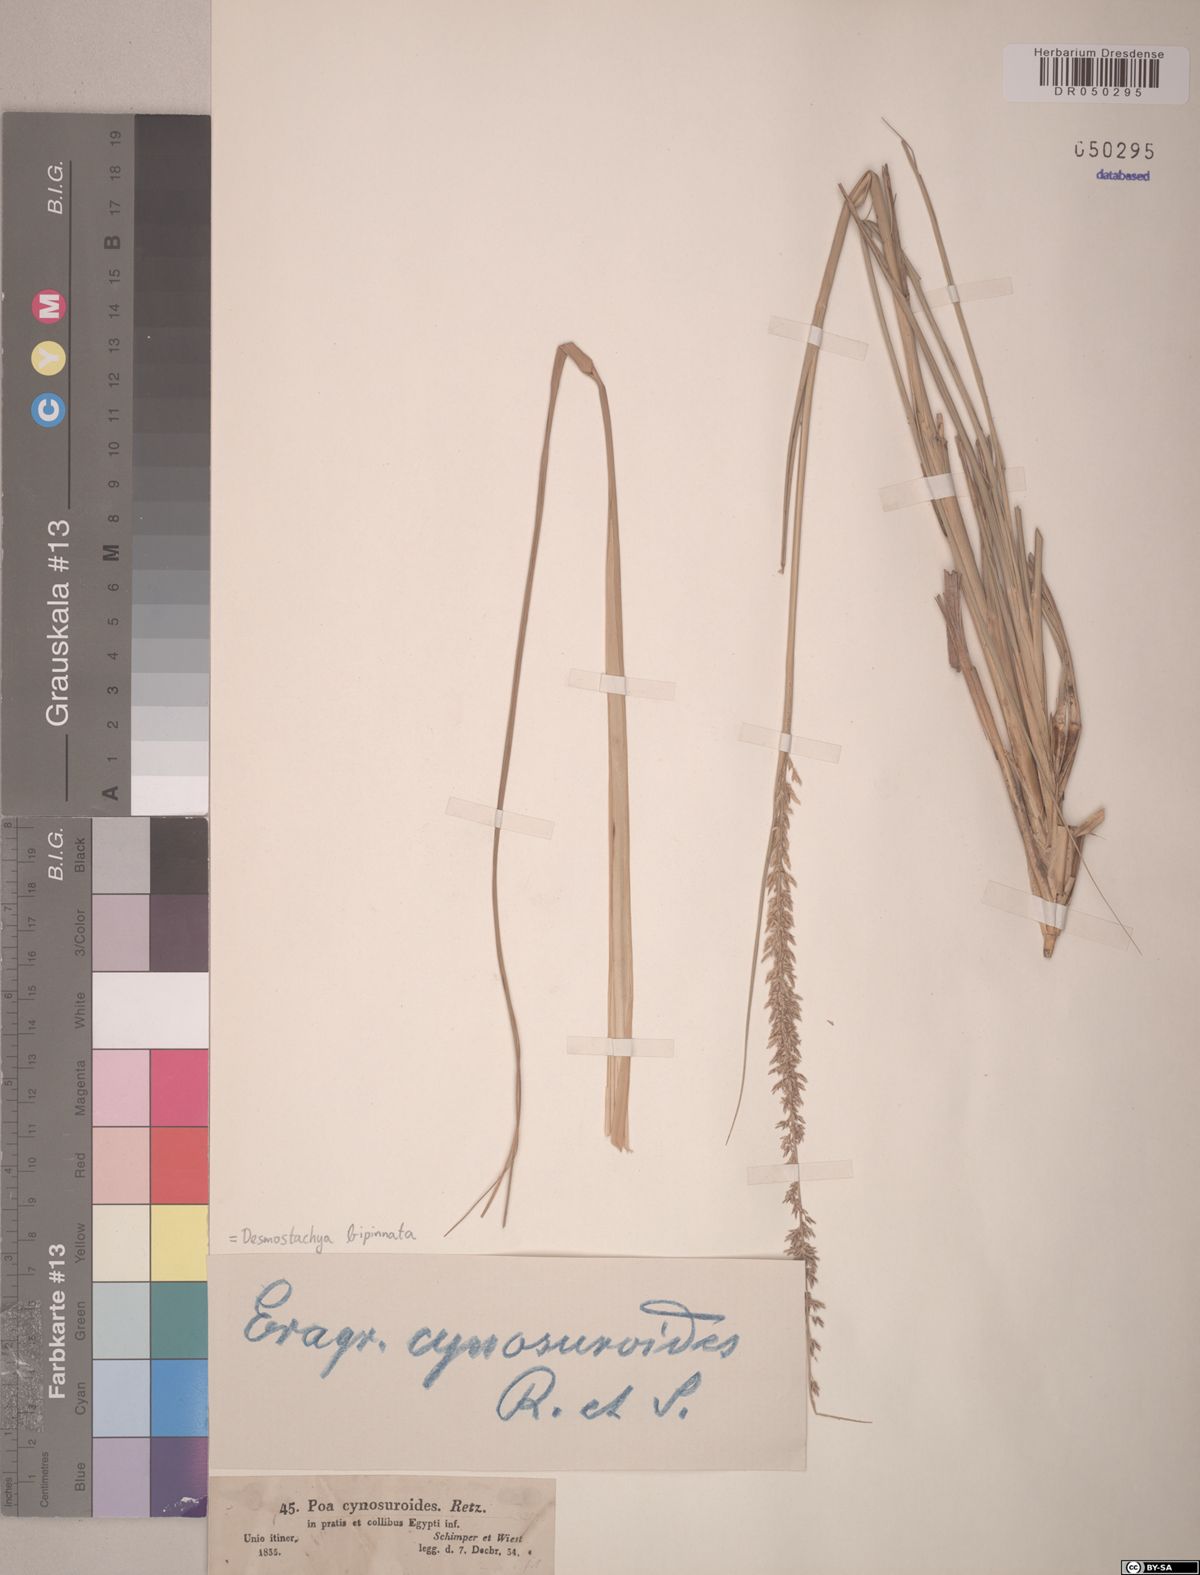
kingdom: Plantae
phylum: Tracheophyta
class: Liliopsida
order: Poales
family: Poaceae
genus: Desmostachya
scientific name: Desmostachya bipinnata
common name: Crowfoot grass
